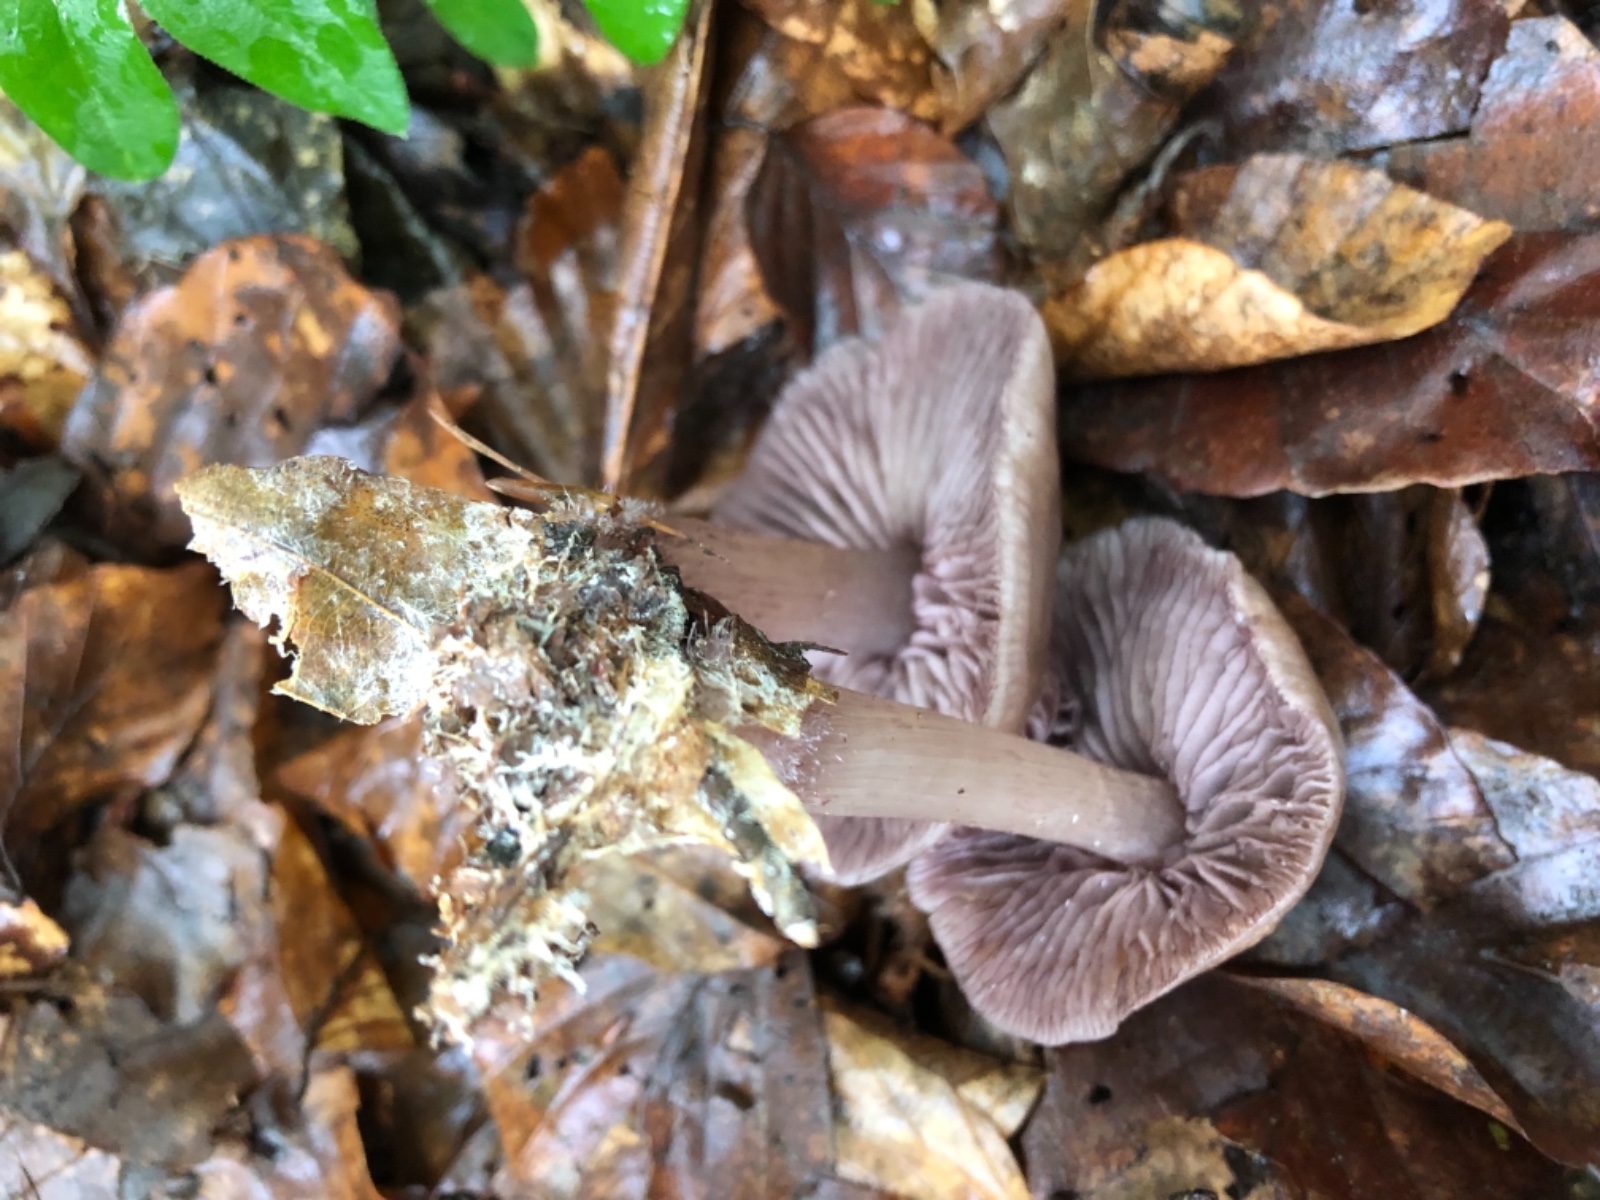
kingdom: Fungi
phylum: Basidiomycota
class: Agaricomycetes
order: Agaricales
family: Mycenaceae
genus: Mycena
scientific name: Mycena pelianthina
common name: mørkbladet huesvamp
